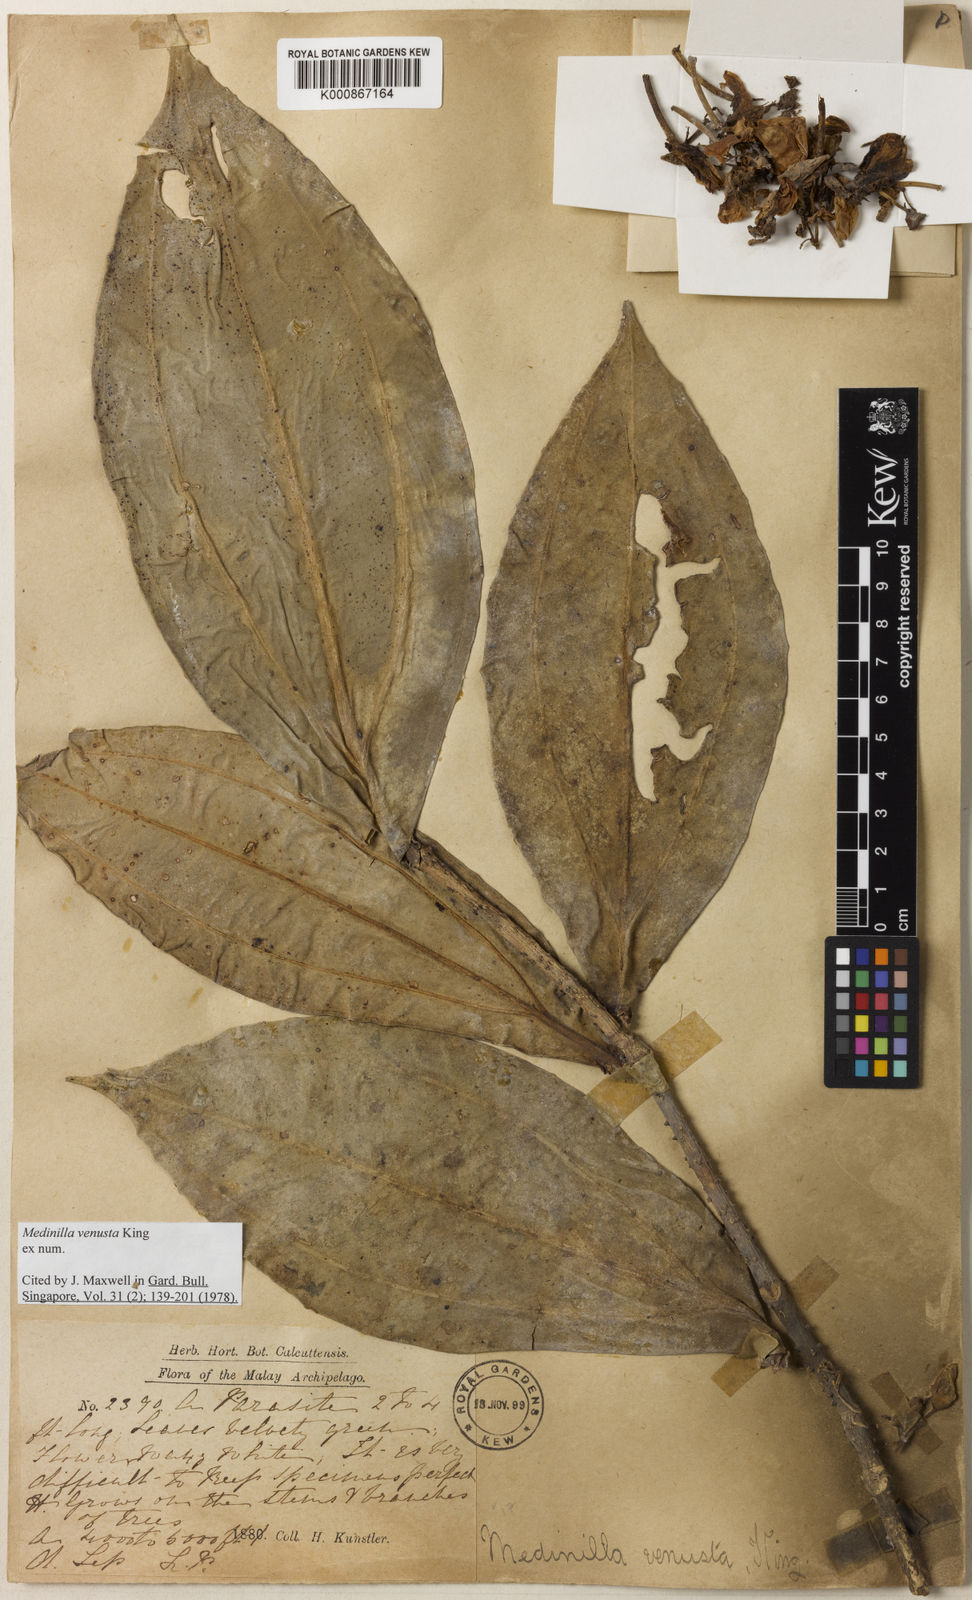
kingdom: Plantae
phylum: Tracheophyta
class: Magnoliopsida
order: Myrtales
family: Melastomataceae
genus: Medinilla
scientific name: Medinilla venusta
